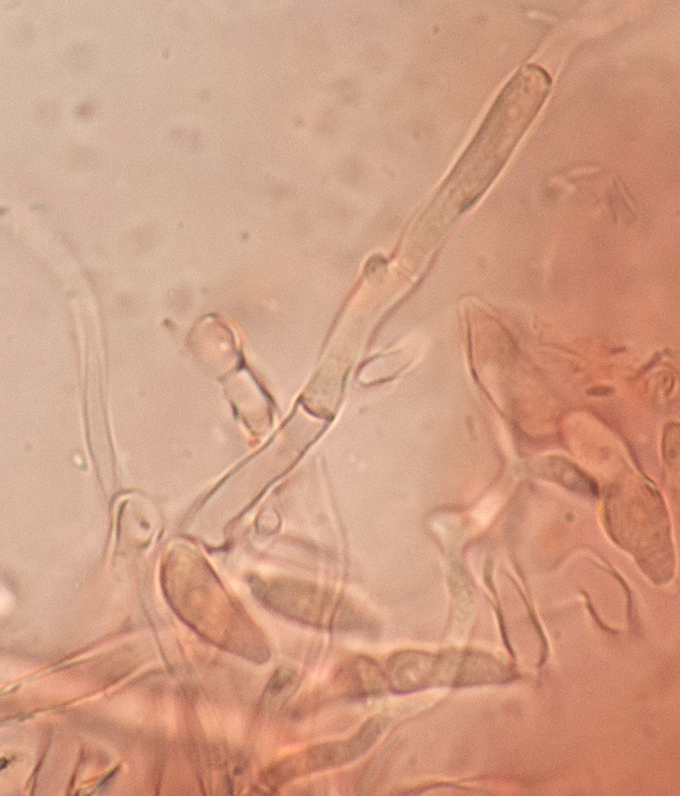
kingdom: Fungi
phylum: Ascomycota
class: Sordariomycetes
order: Hypocreales
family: Nectriaceae
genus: Fusarium
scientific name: Fusarium
